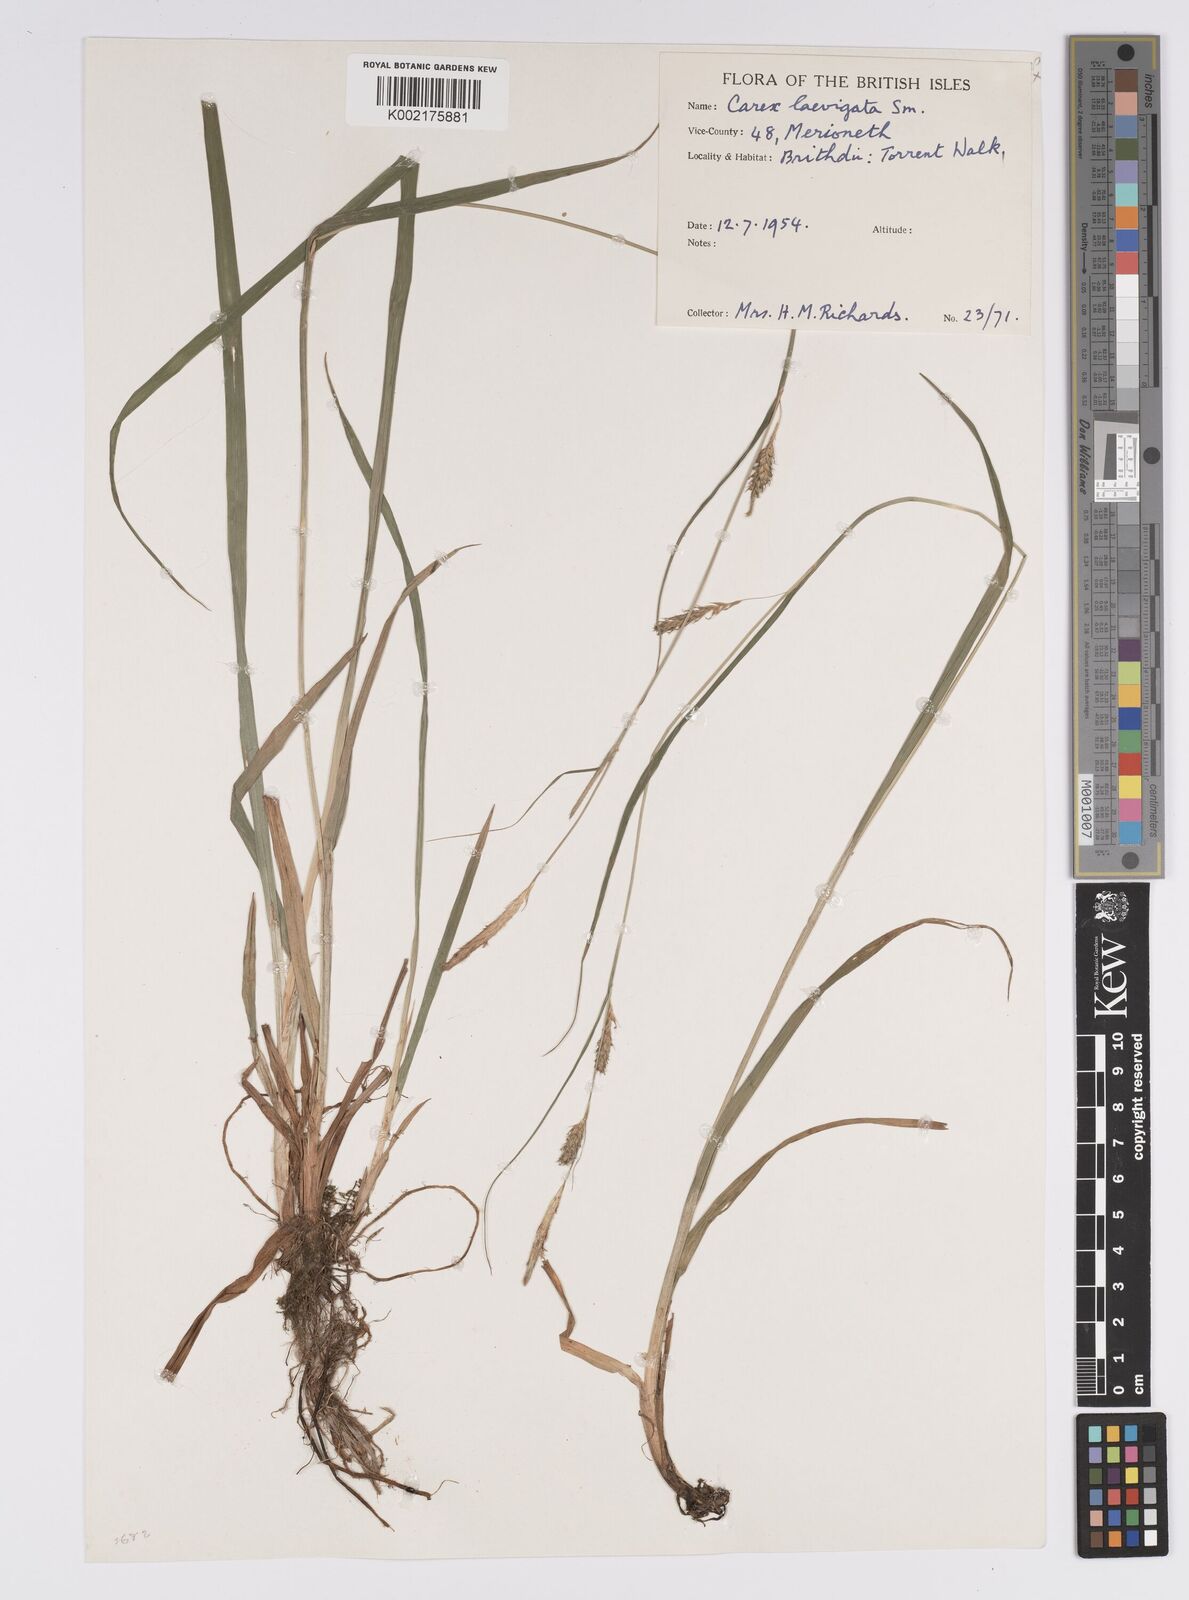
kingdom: Plantae
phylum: Tracheophyta
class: Liliopsida
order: Poales
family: Cyperaceae
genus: Carex
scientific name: Carex laevigata
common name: Smooth-stalked sedge
